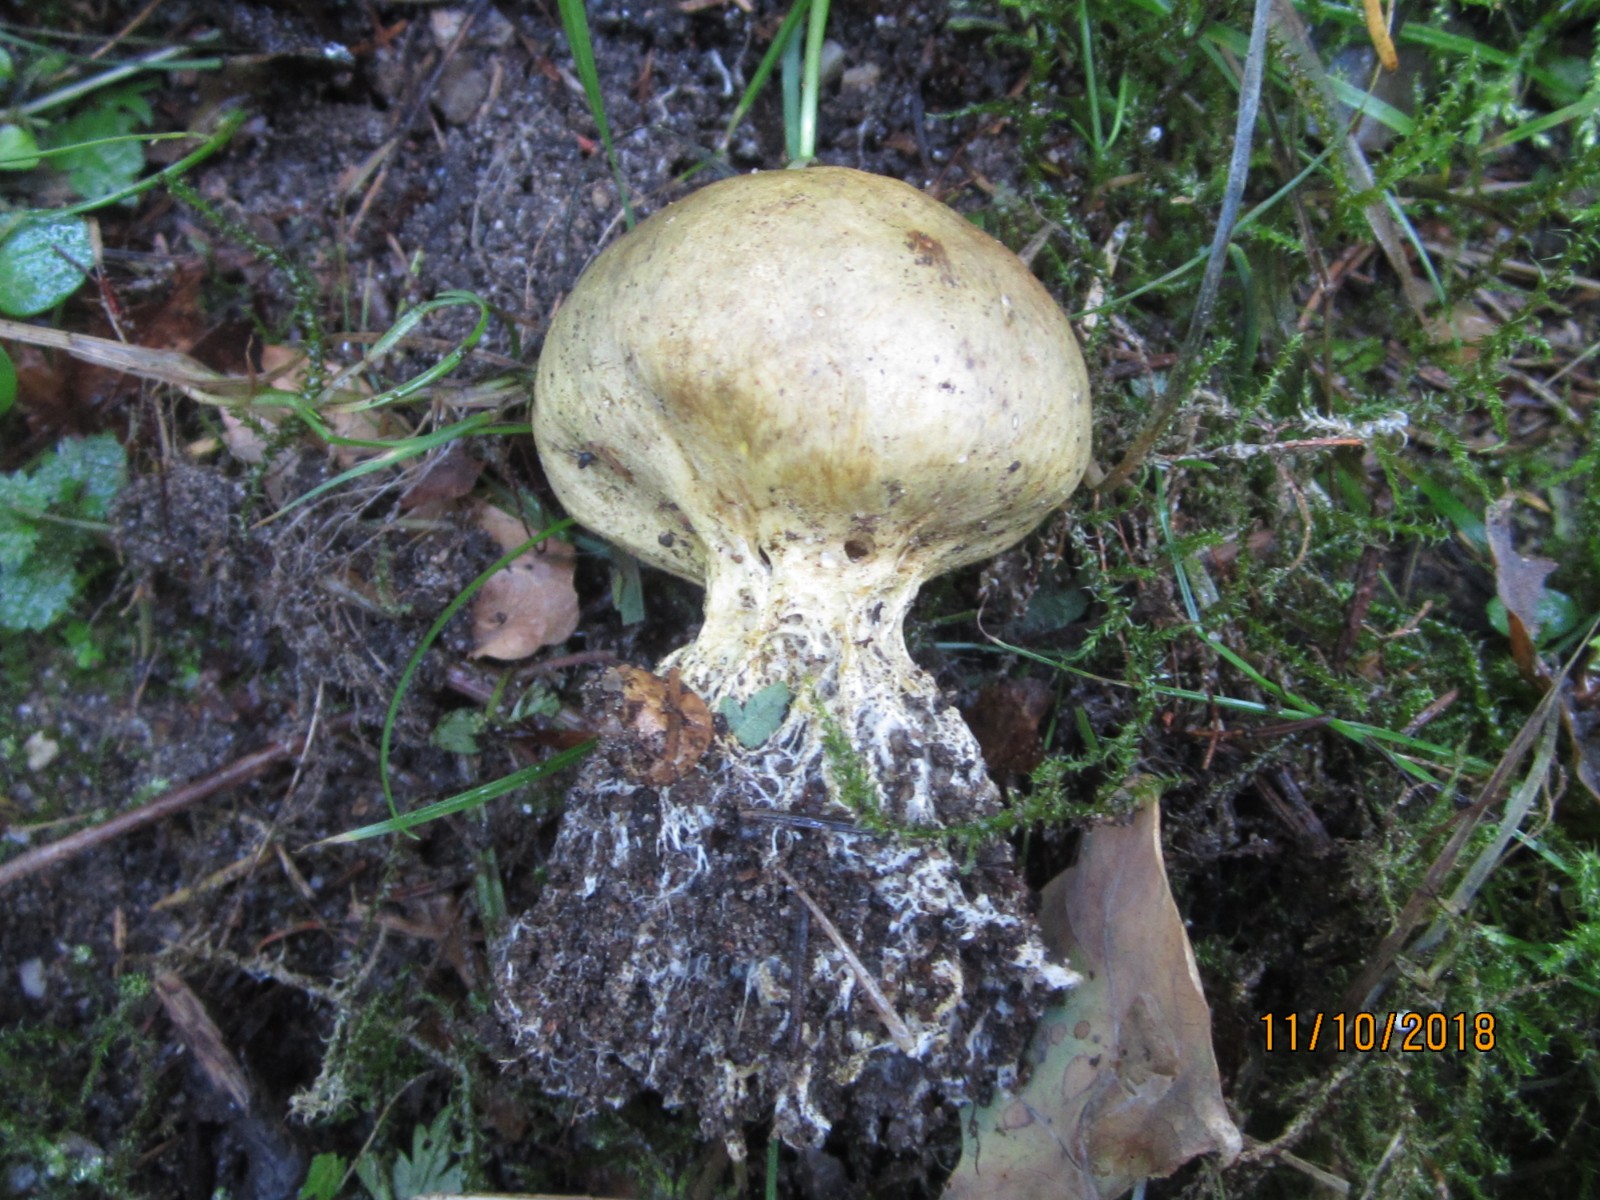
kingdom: Fungi
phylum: Basidiomycota
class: Agaricomycetes
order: Boletales
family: Sclerodermataceae
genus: Scleroderma
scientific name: Scleroderma verrucosum
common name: stilket bruskbold
